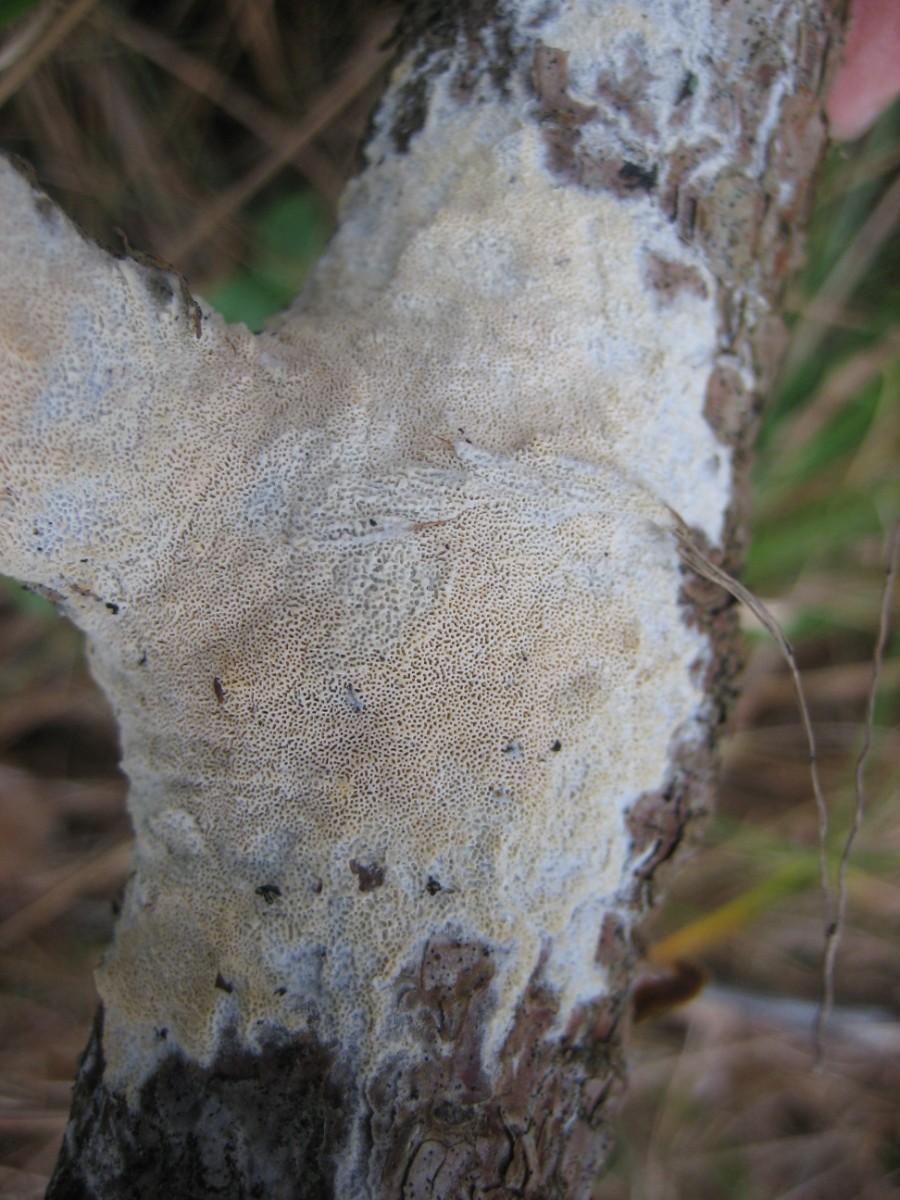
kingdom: Fungi
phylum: Basidiomycota
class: Agaricomycetes
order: Polyporales
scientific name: Polyporales
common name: poresvampordenen
